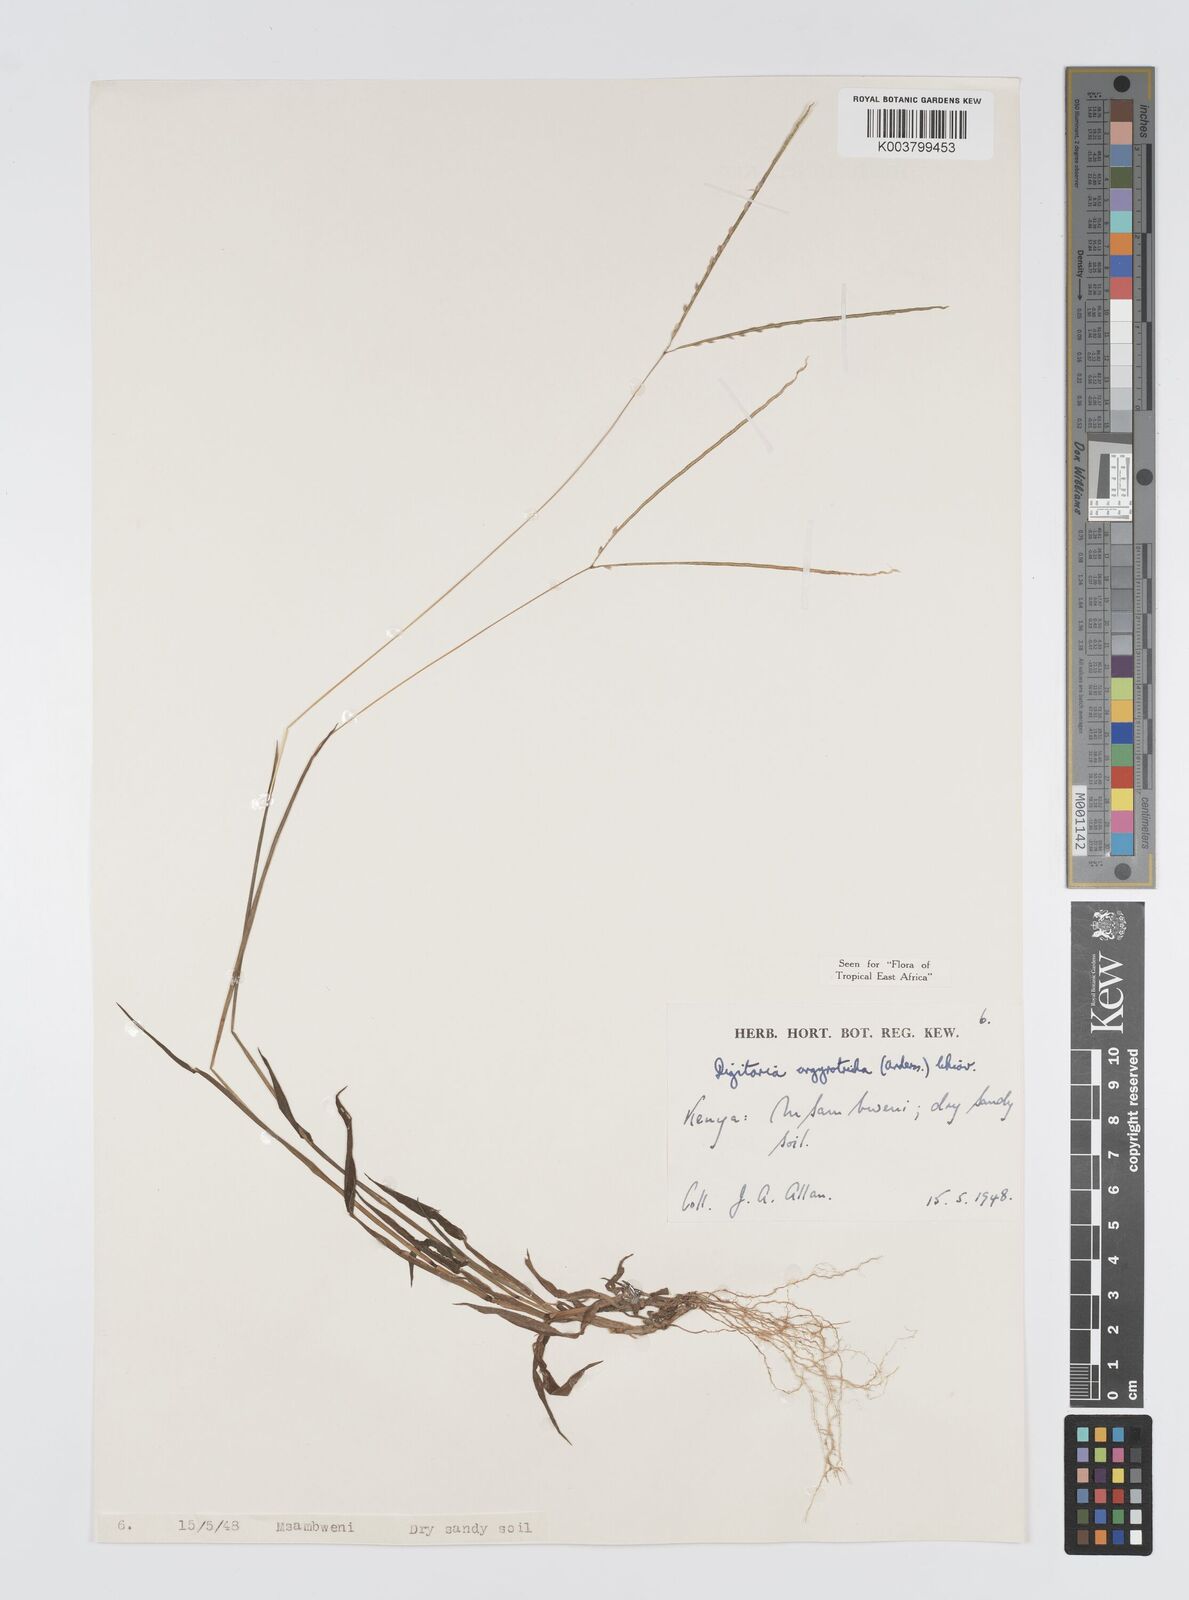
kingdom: Plantae
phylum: Tracheophyta
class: Liliopsida
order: Poales
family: Poaceae
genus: Digitaria
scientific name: Digitaria argyrotricha
